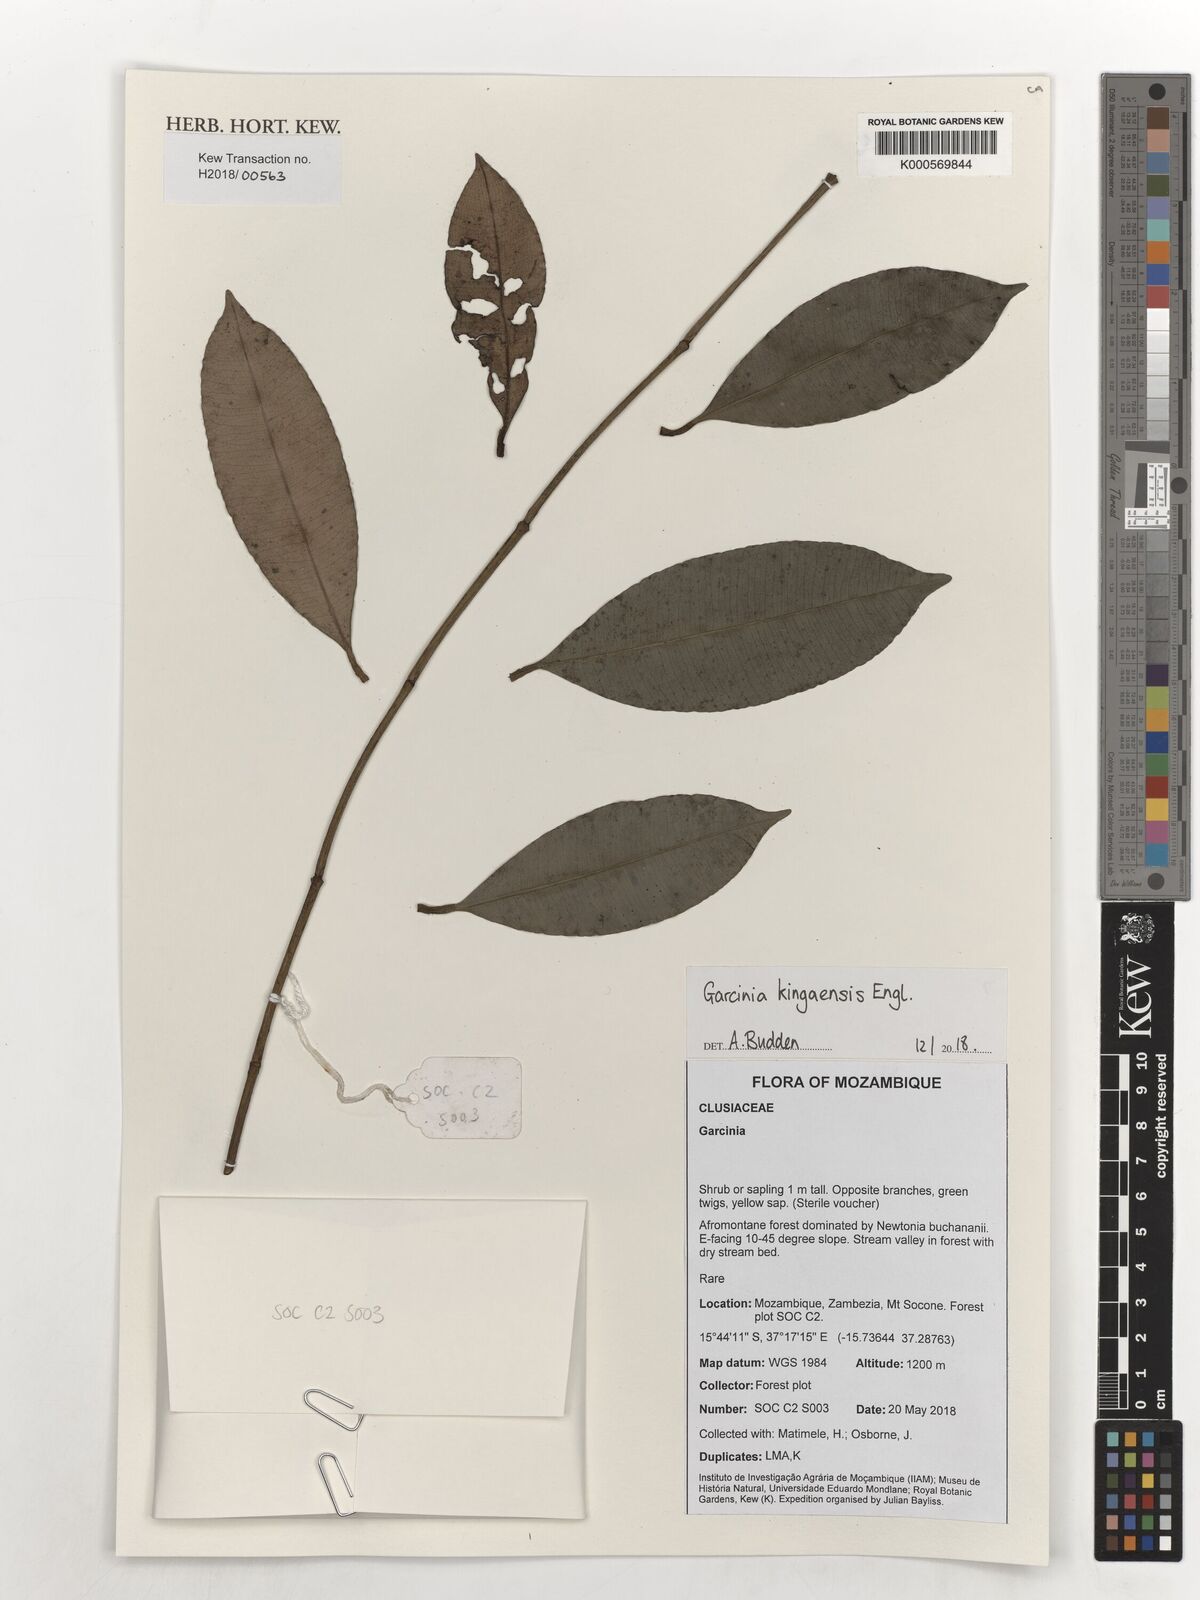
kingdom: Plantae
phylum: Tracheophyta
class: Magnoliopsida
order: Malpighiales
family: Clusiaceae
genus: Garcinia
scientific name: Garcinia kingaensis
